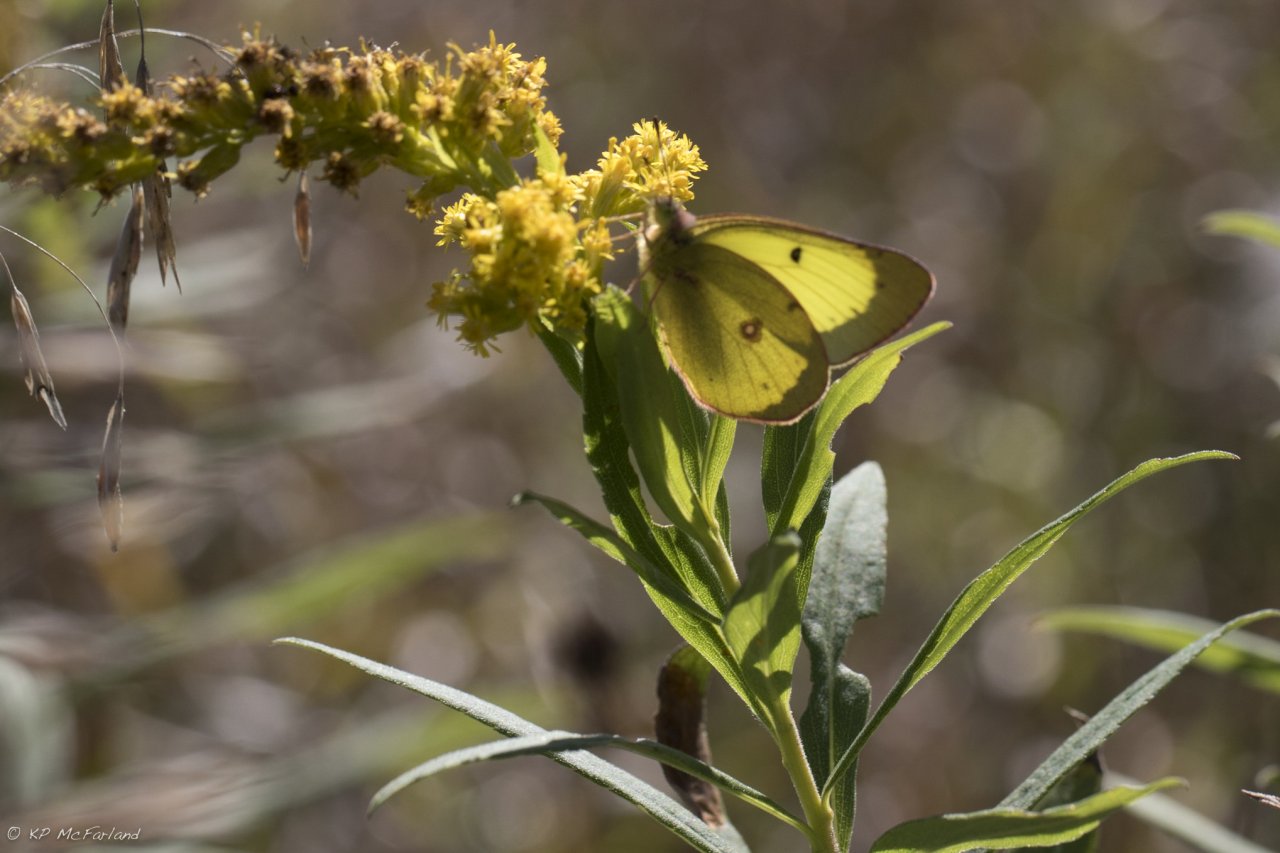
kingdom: Animalia
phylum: Arthropoda
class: Insecta
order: Lepidoptera
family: Pieridae
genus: Colias
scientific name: Colias philodice
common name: Clouded Sulphur
